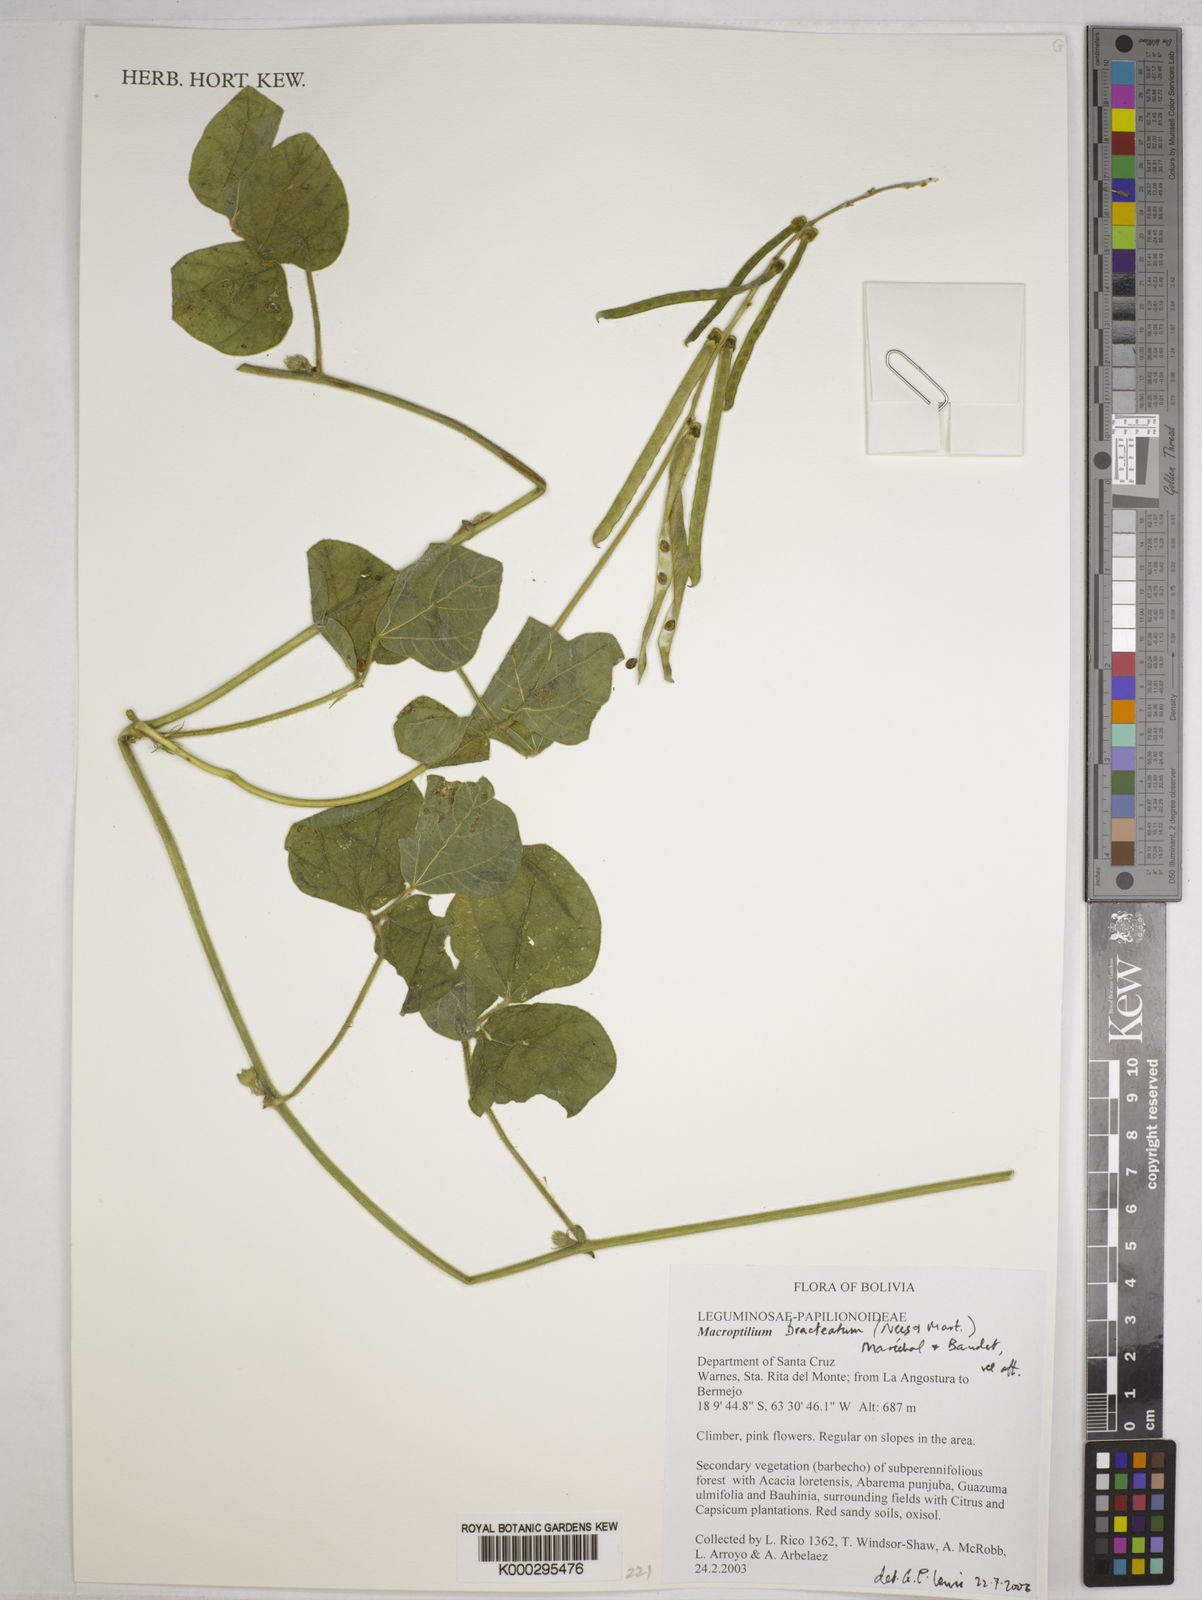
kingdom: Plantae
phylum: Tracheophyta
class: Magnoliopsida
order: Fabales
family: Fabaceae
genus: Macroptilium
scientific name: Macroptilium
